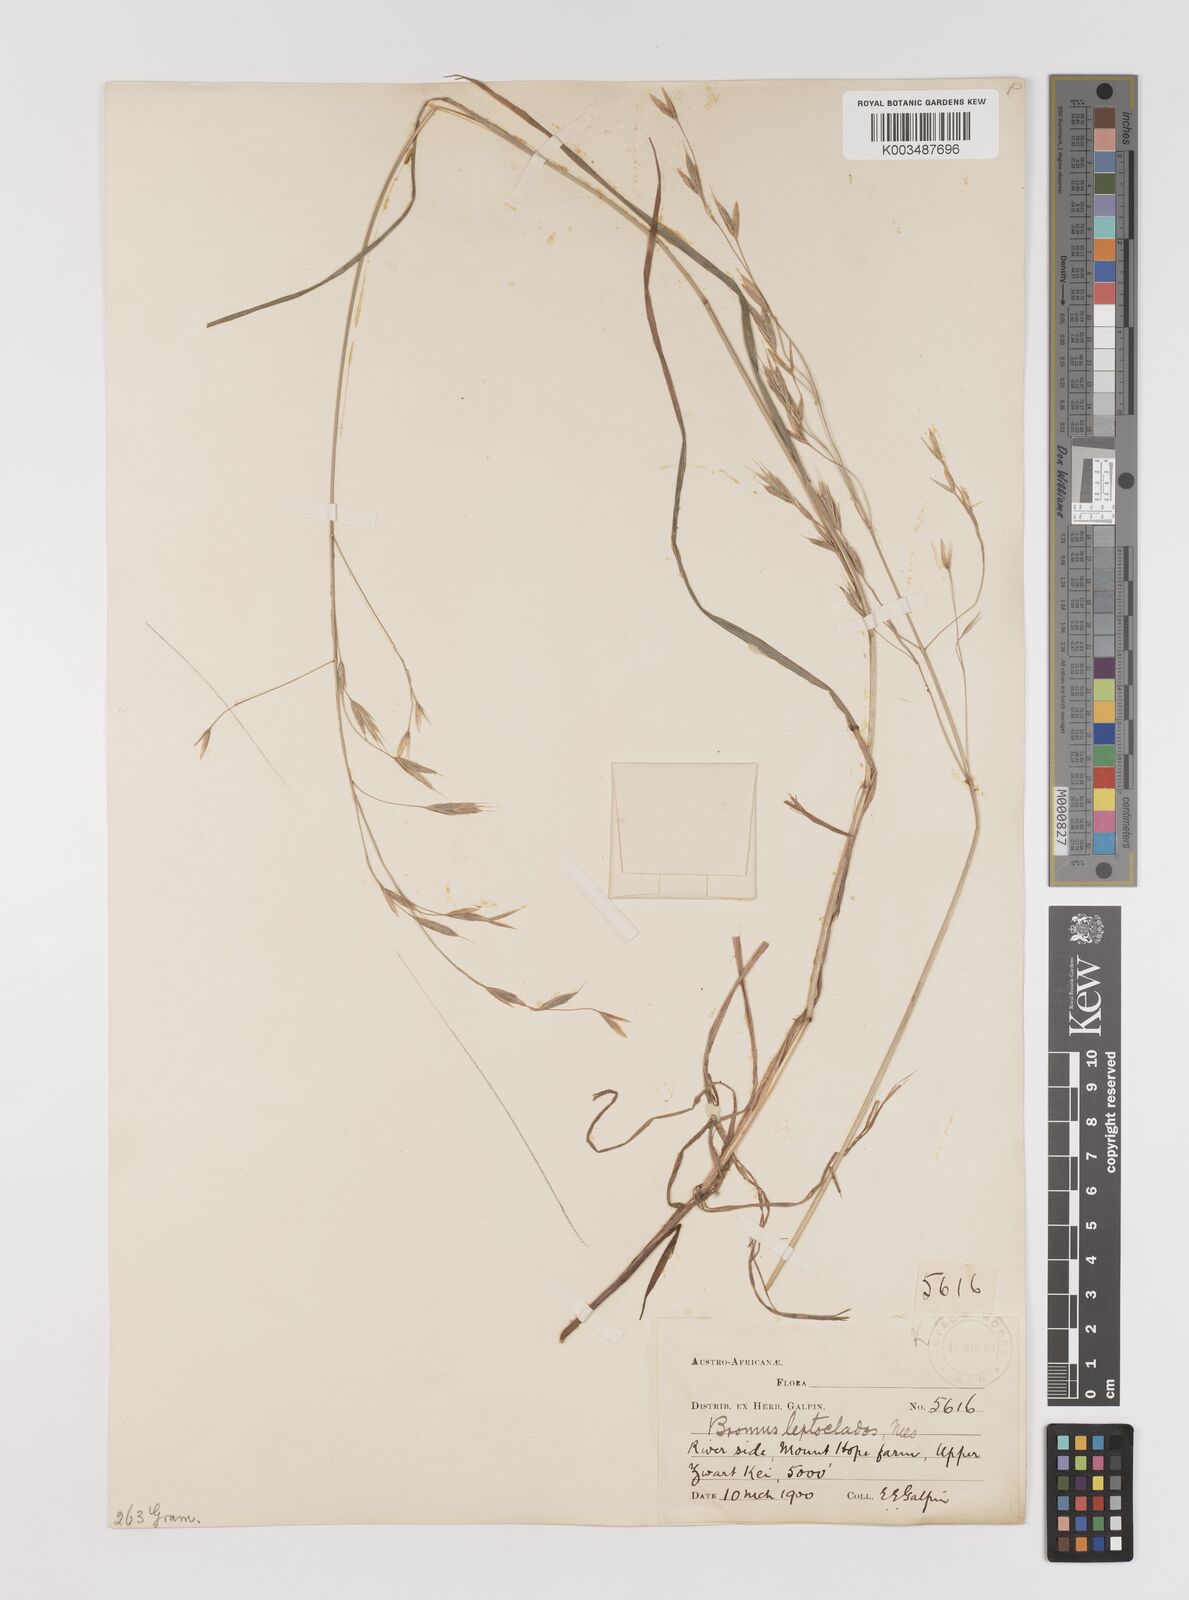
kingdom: Plantae
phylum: Tracheophyta
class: Liliopsida
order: Poales
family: Poaceae
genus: Bromus
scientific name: Bromus leptoclados
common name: Mountain bromegrass
